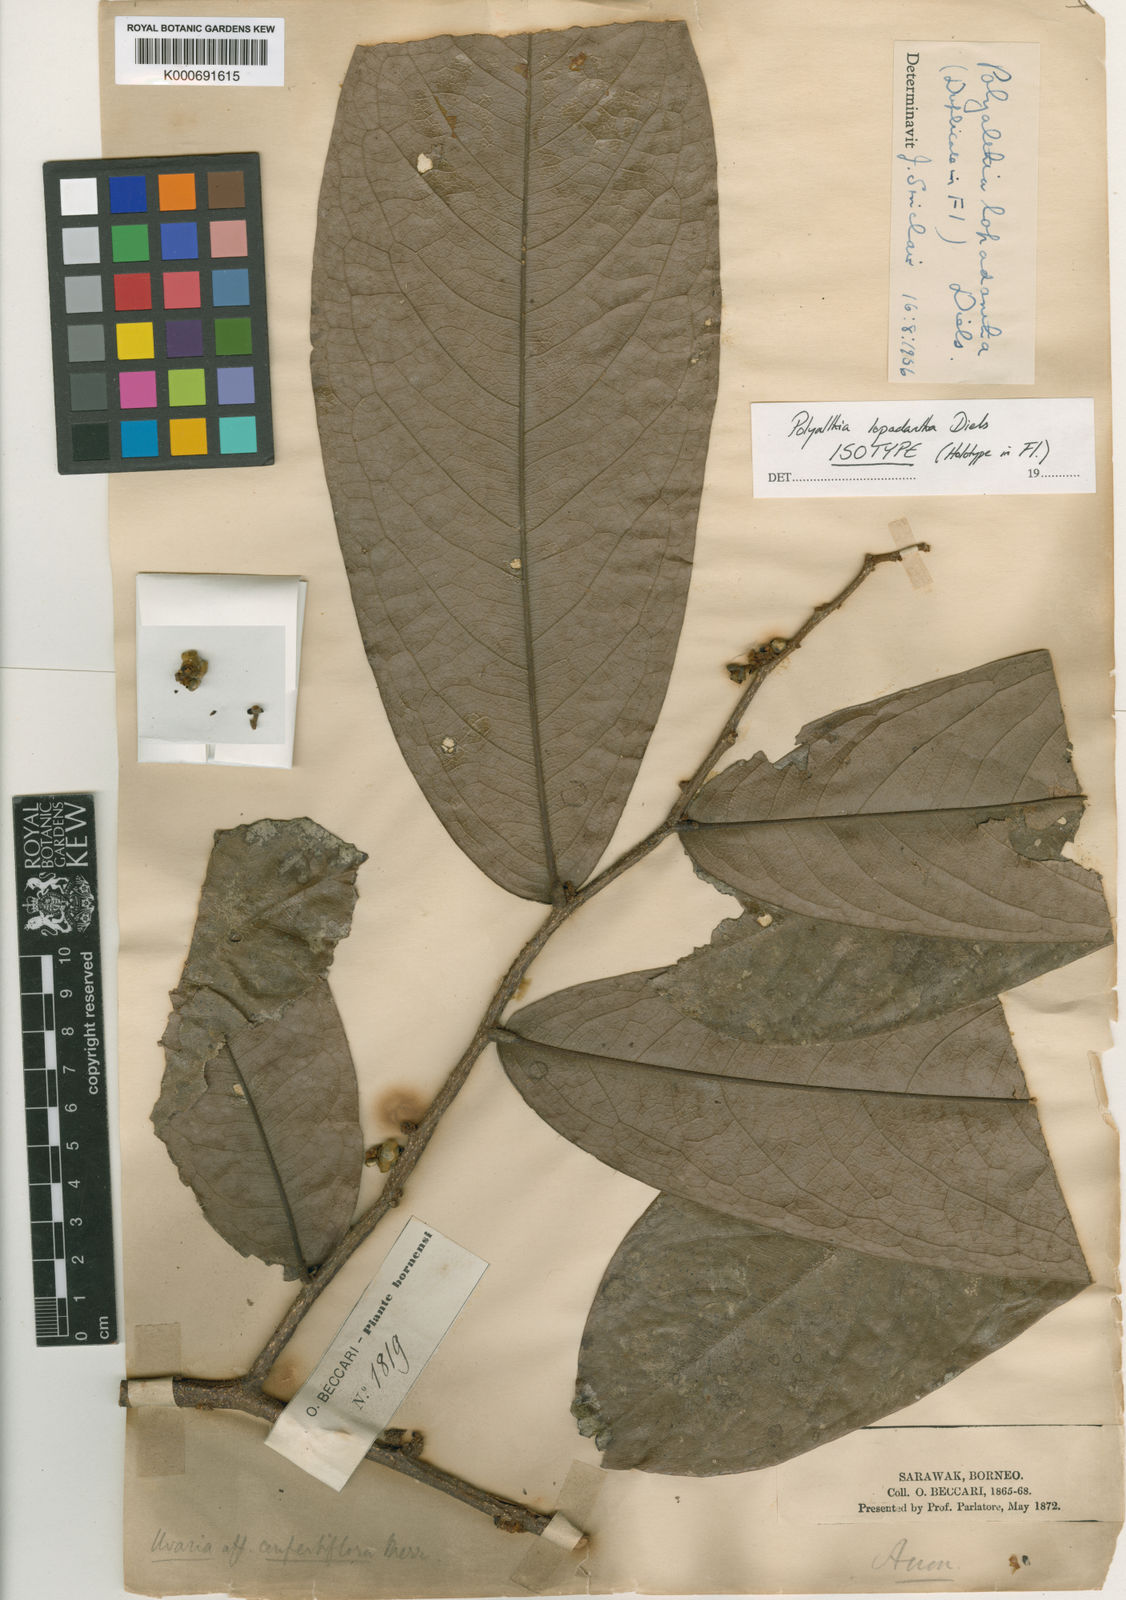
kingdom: Plantae
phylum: Tracheophyta
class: Magnoliopsida
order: Magnoliales
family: Annonaceae
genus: Polyalthia
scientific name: Polyalthia obliqua
